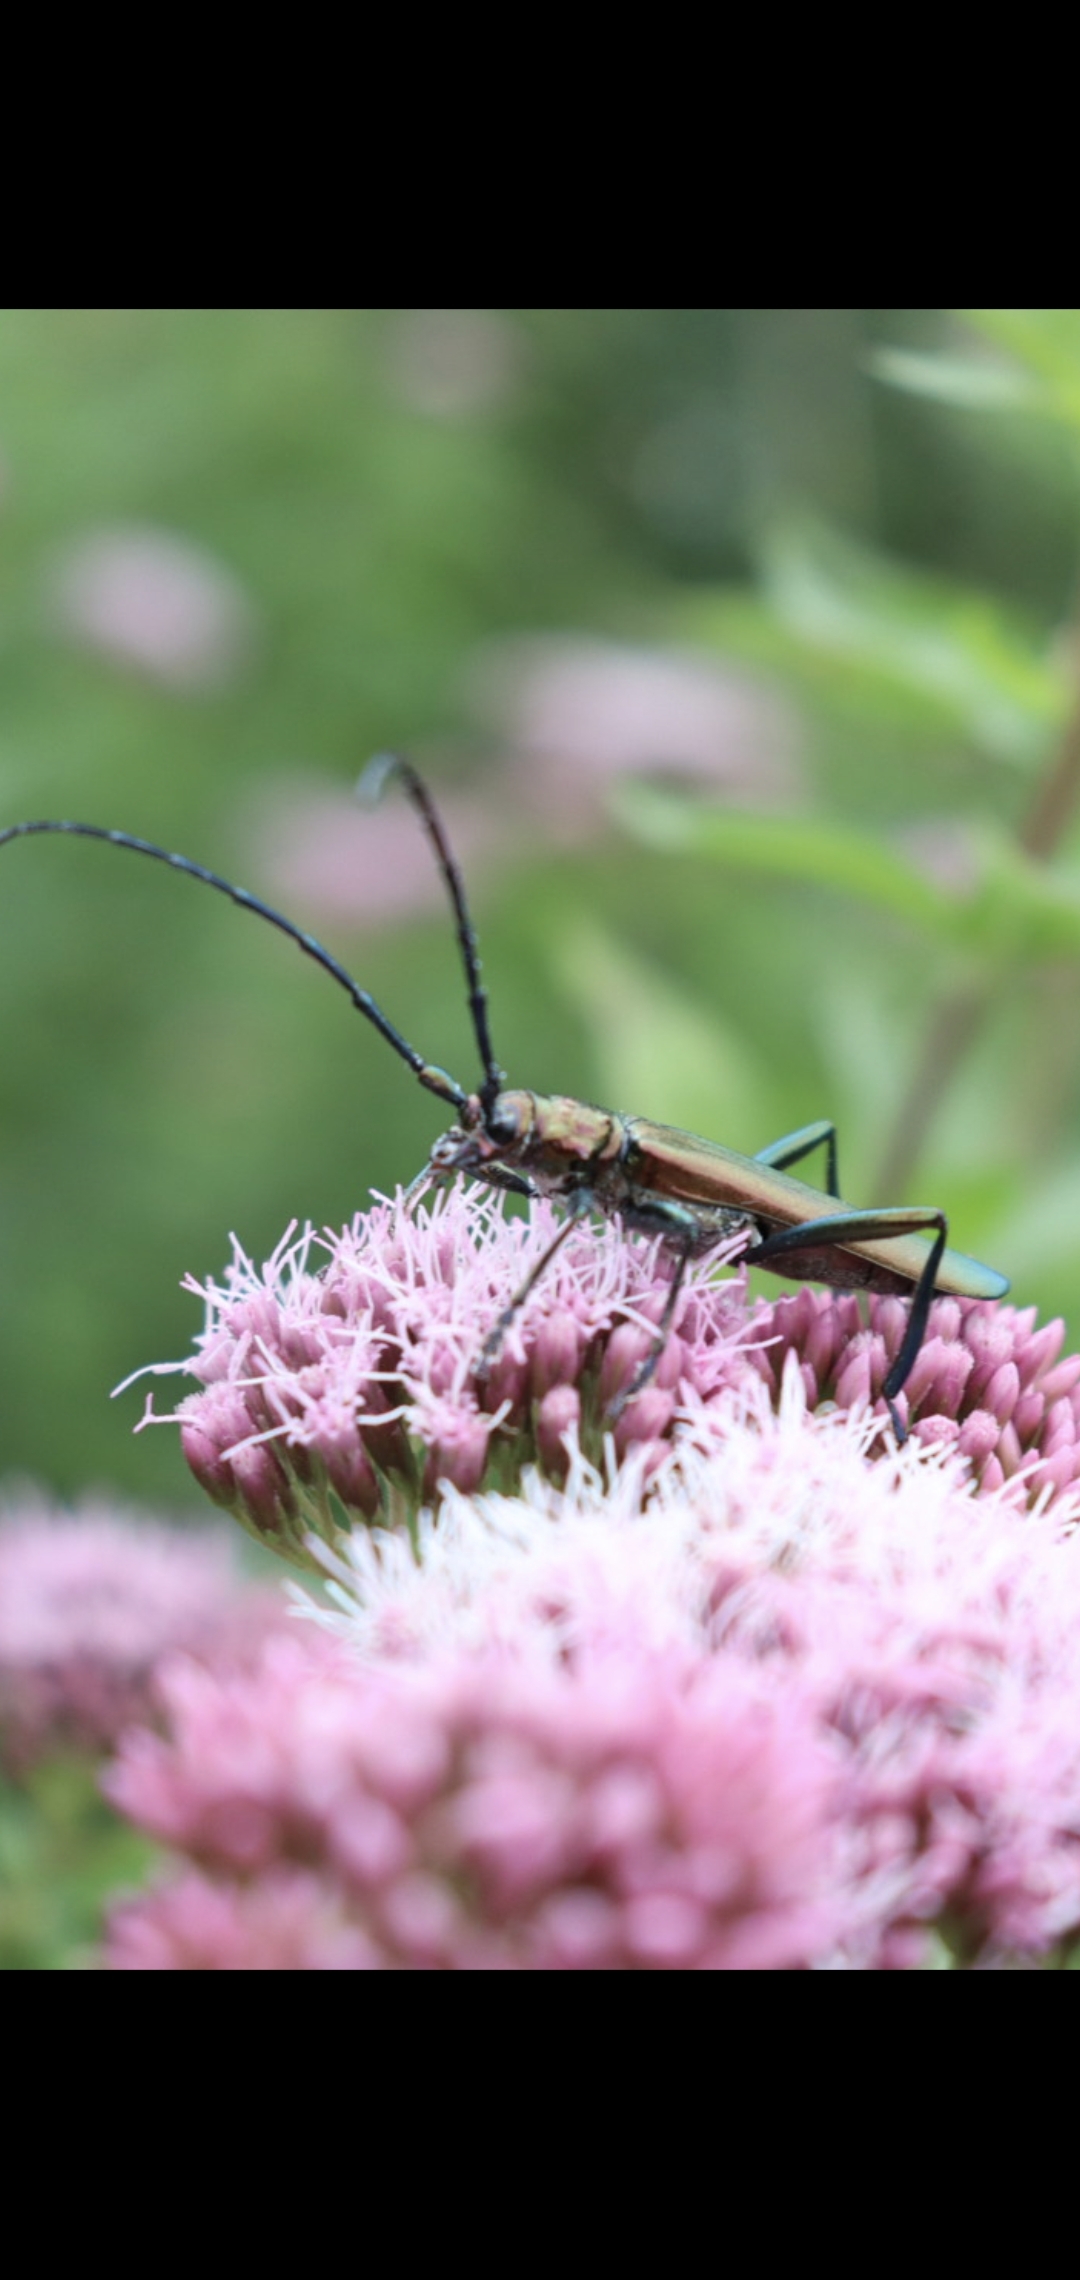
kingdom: Animalia
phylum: Arthropoda
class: Insecta
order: Coleoptera
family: Cerambycidae
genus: Aromia
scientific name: Aromia moschata
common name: Moskusbuk
